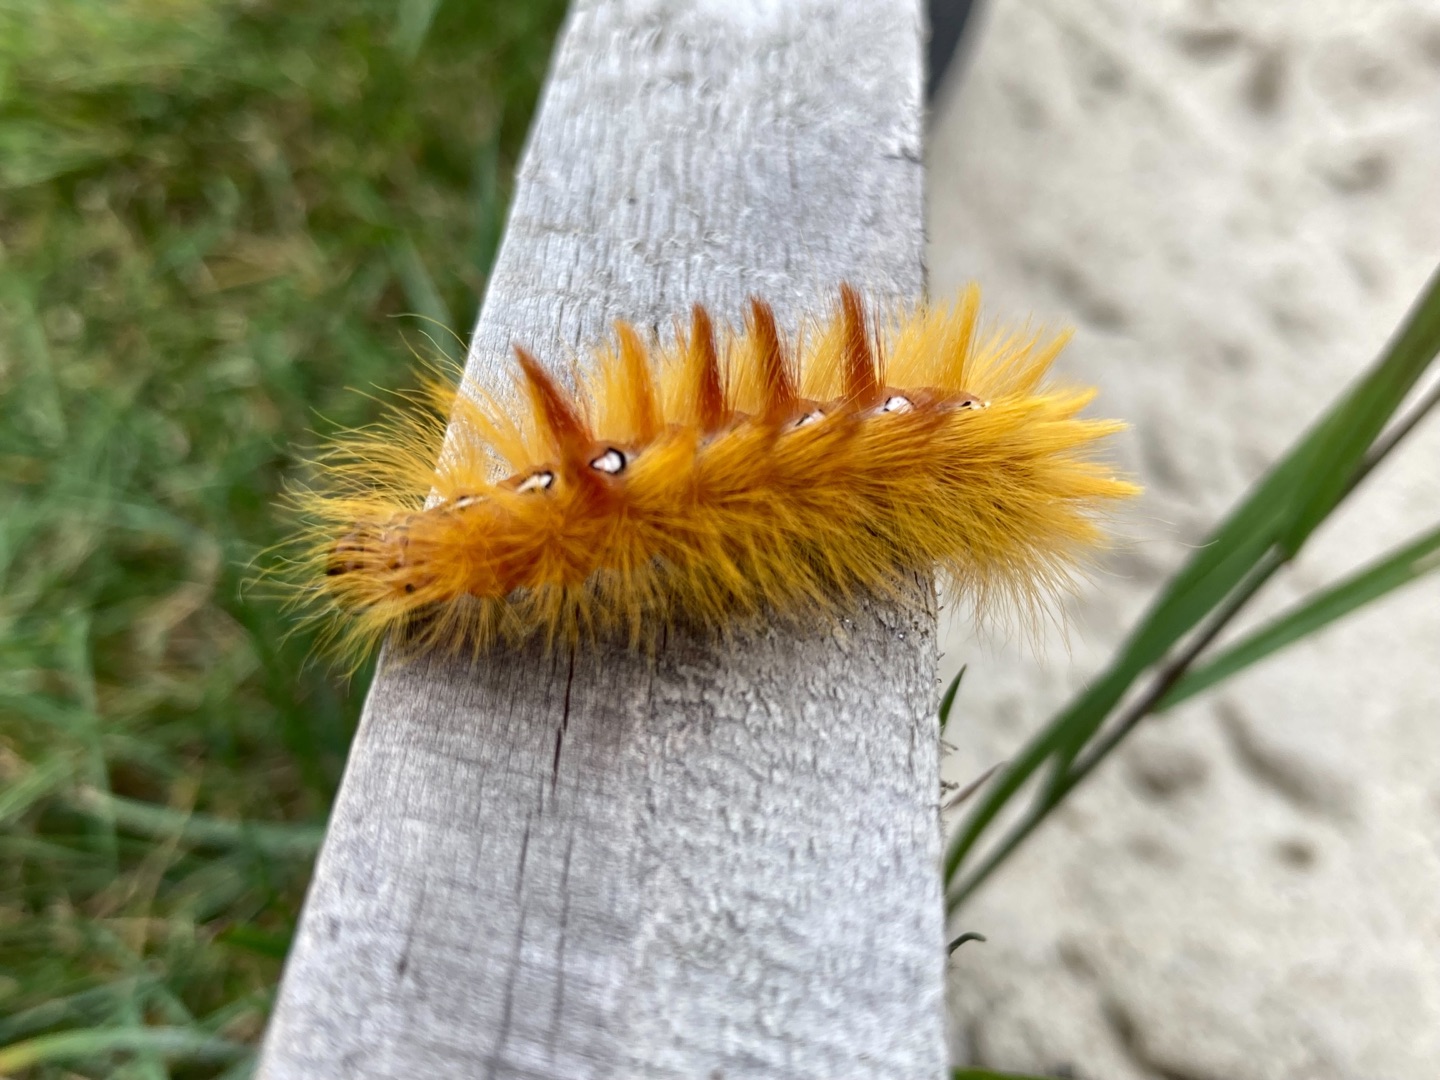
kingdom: Animalia
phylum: Arthropoda
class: Insecta
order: Lepidoptera
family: Noctuidae
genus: Acronicta
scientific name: Acronicta aceris
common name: Ahornugle
